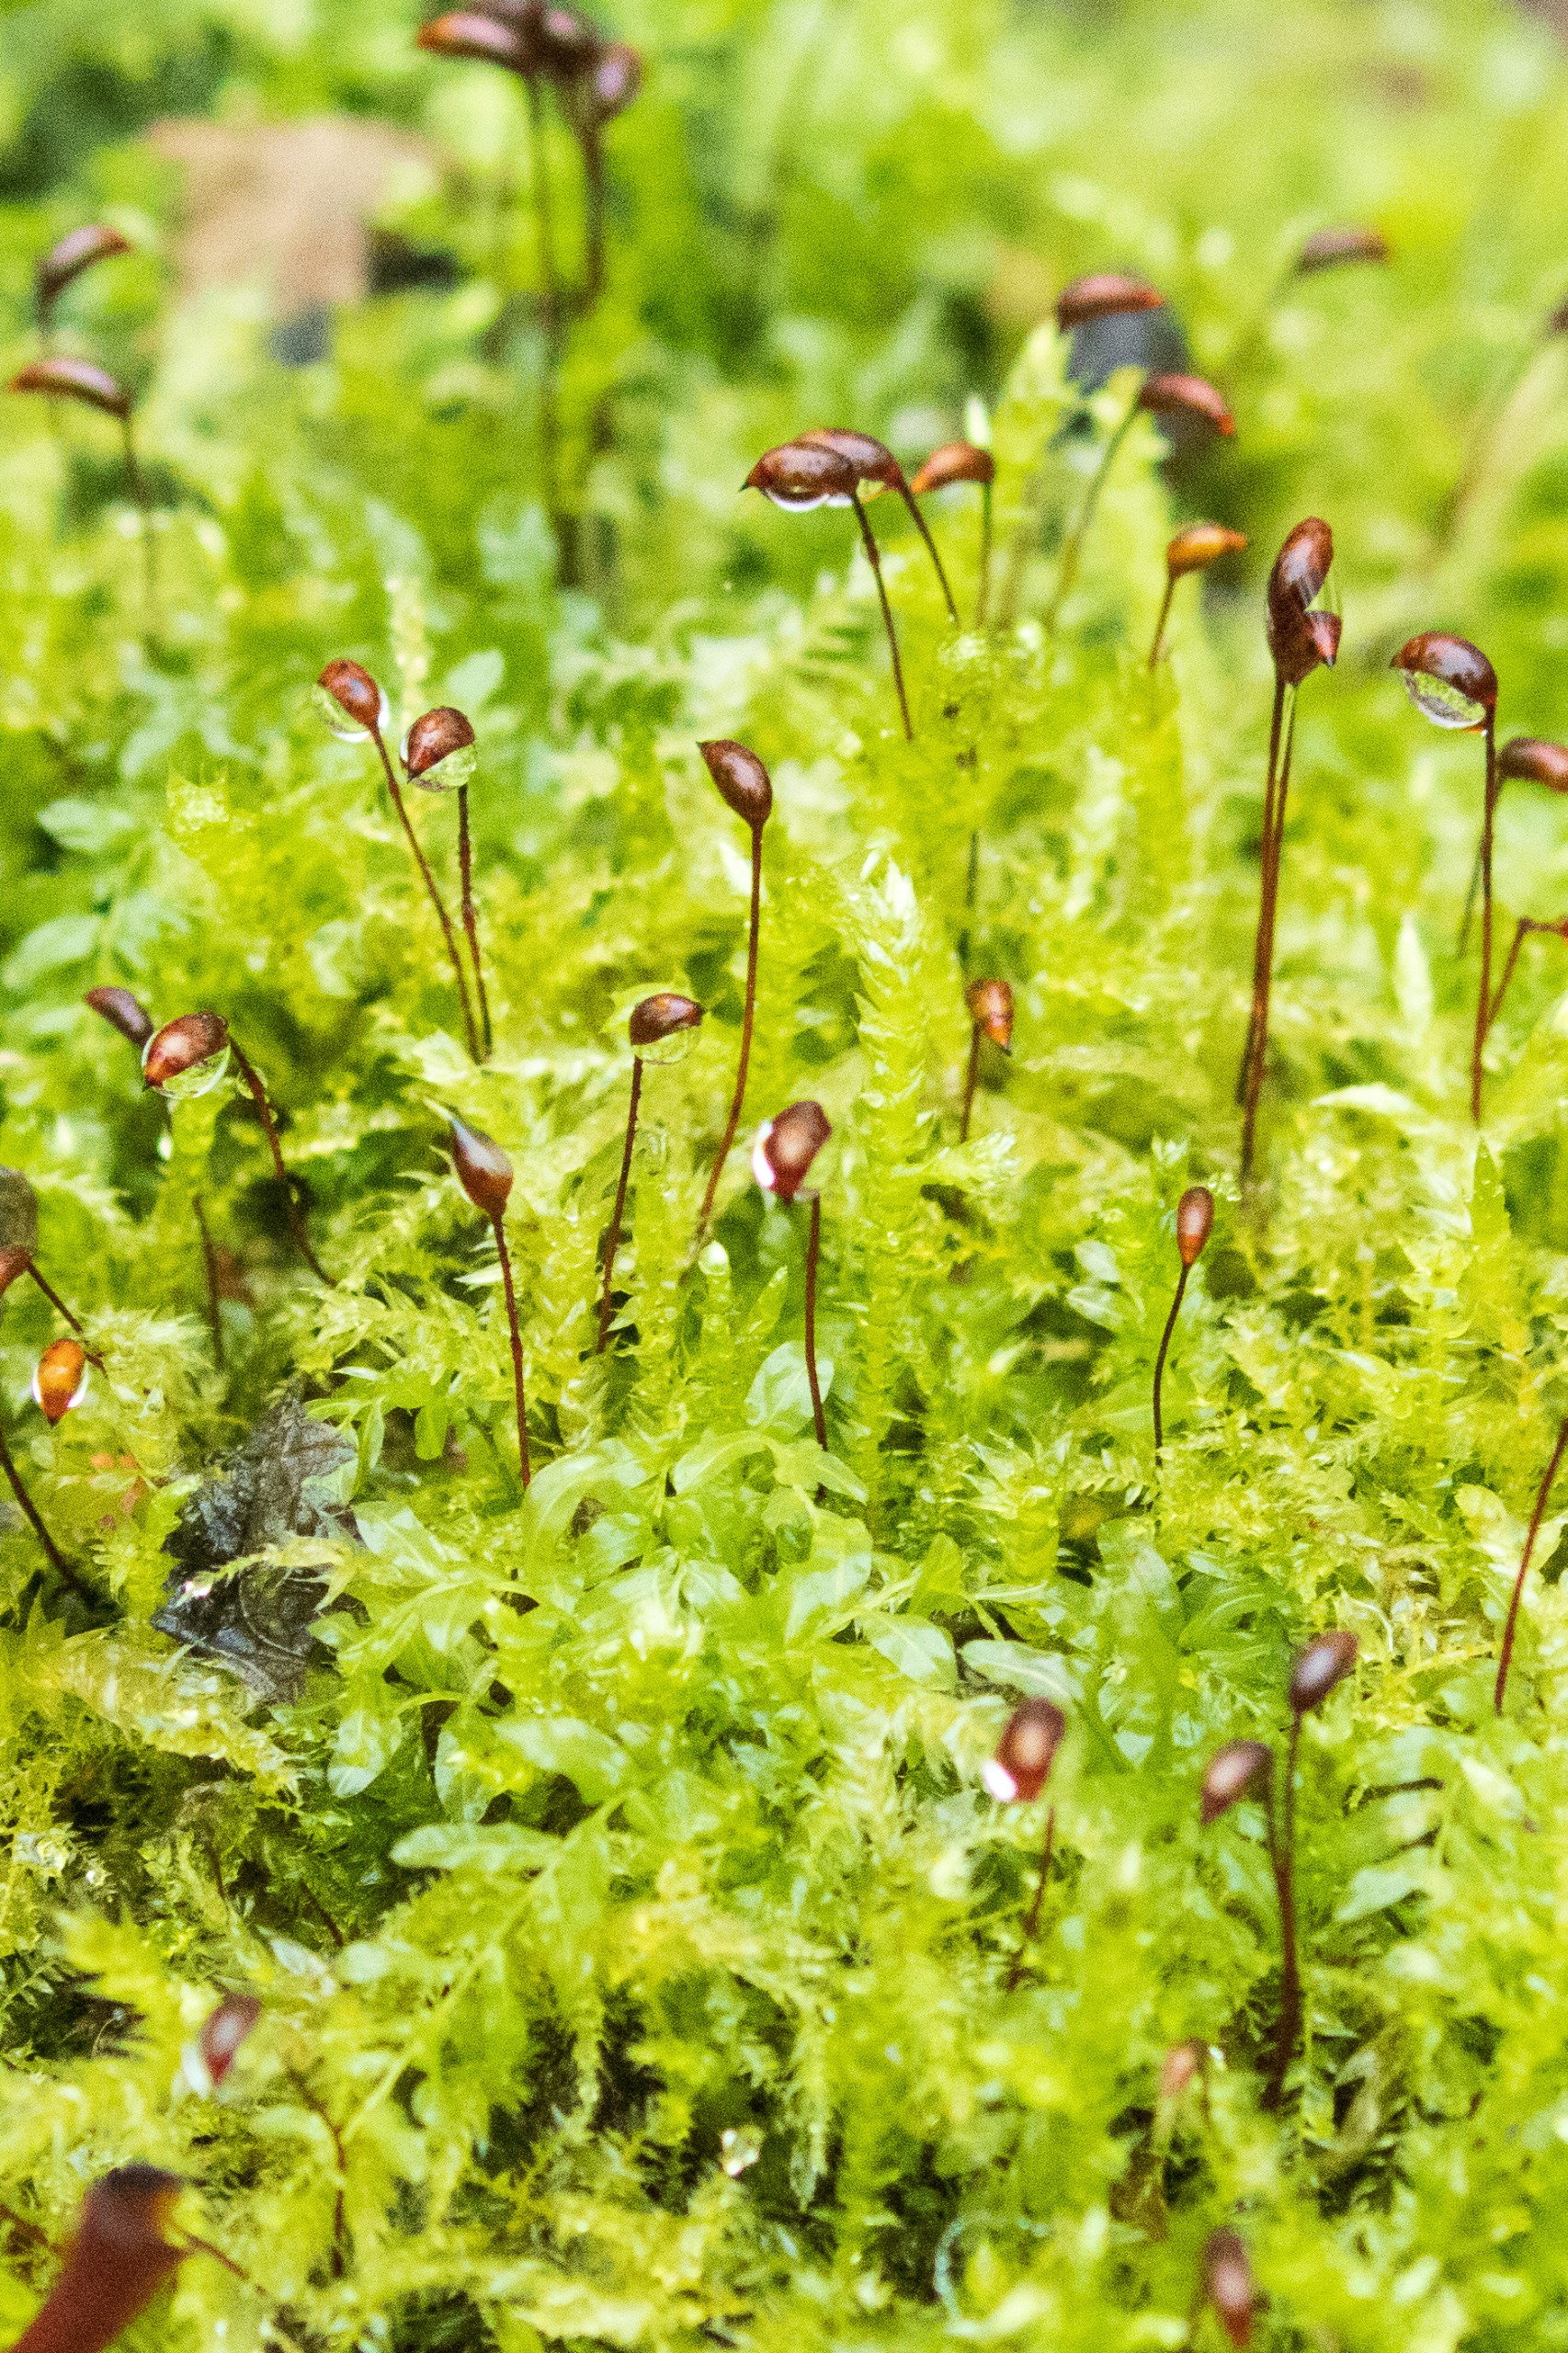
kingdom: Plantae
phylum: Bryophyta
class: Bryopsida
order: Hypnales
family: Brachytheciaceae
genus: Brachythecium
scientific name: Brachythecium rutabulum
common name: Almindelig kortkapsel
